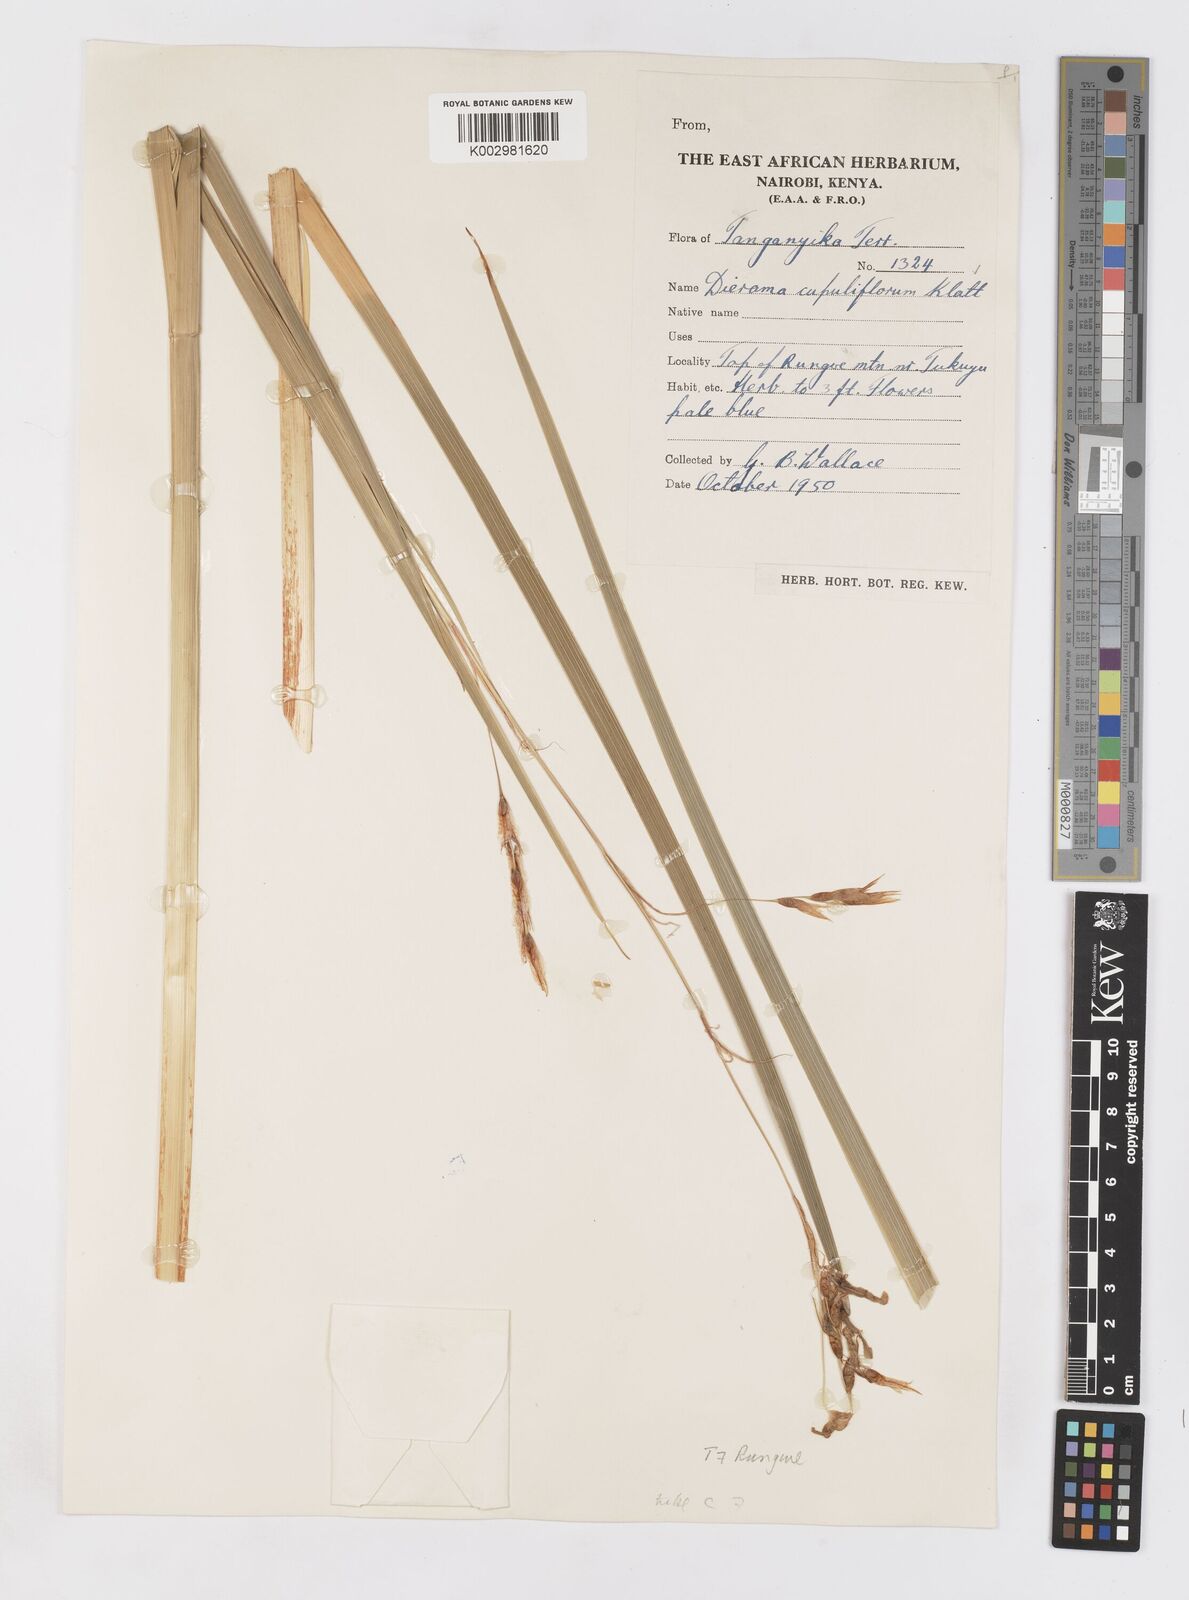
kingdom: Plantae
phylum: Tracheophyta
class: Liliopsida
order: Asparagales
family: Iridaceae
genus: Dierama
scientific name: Dierama cupuliflorum
